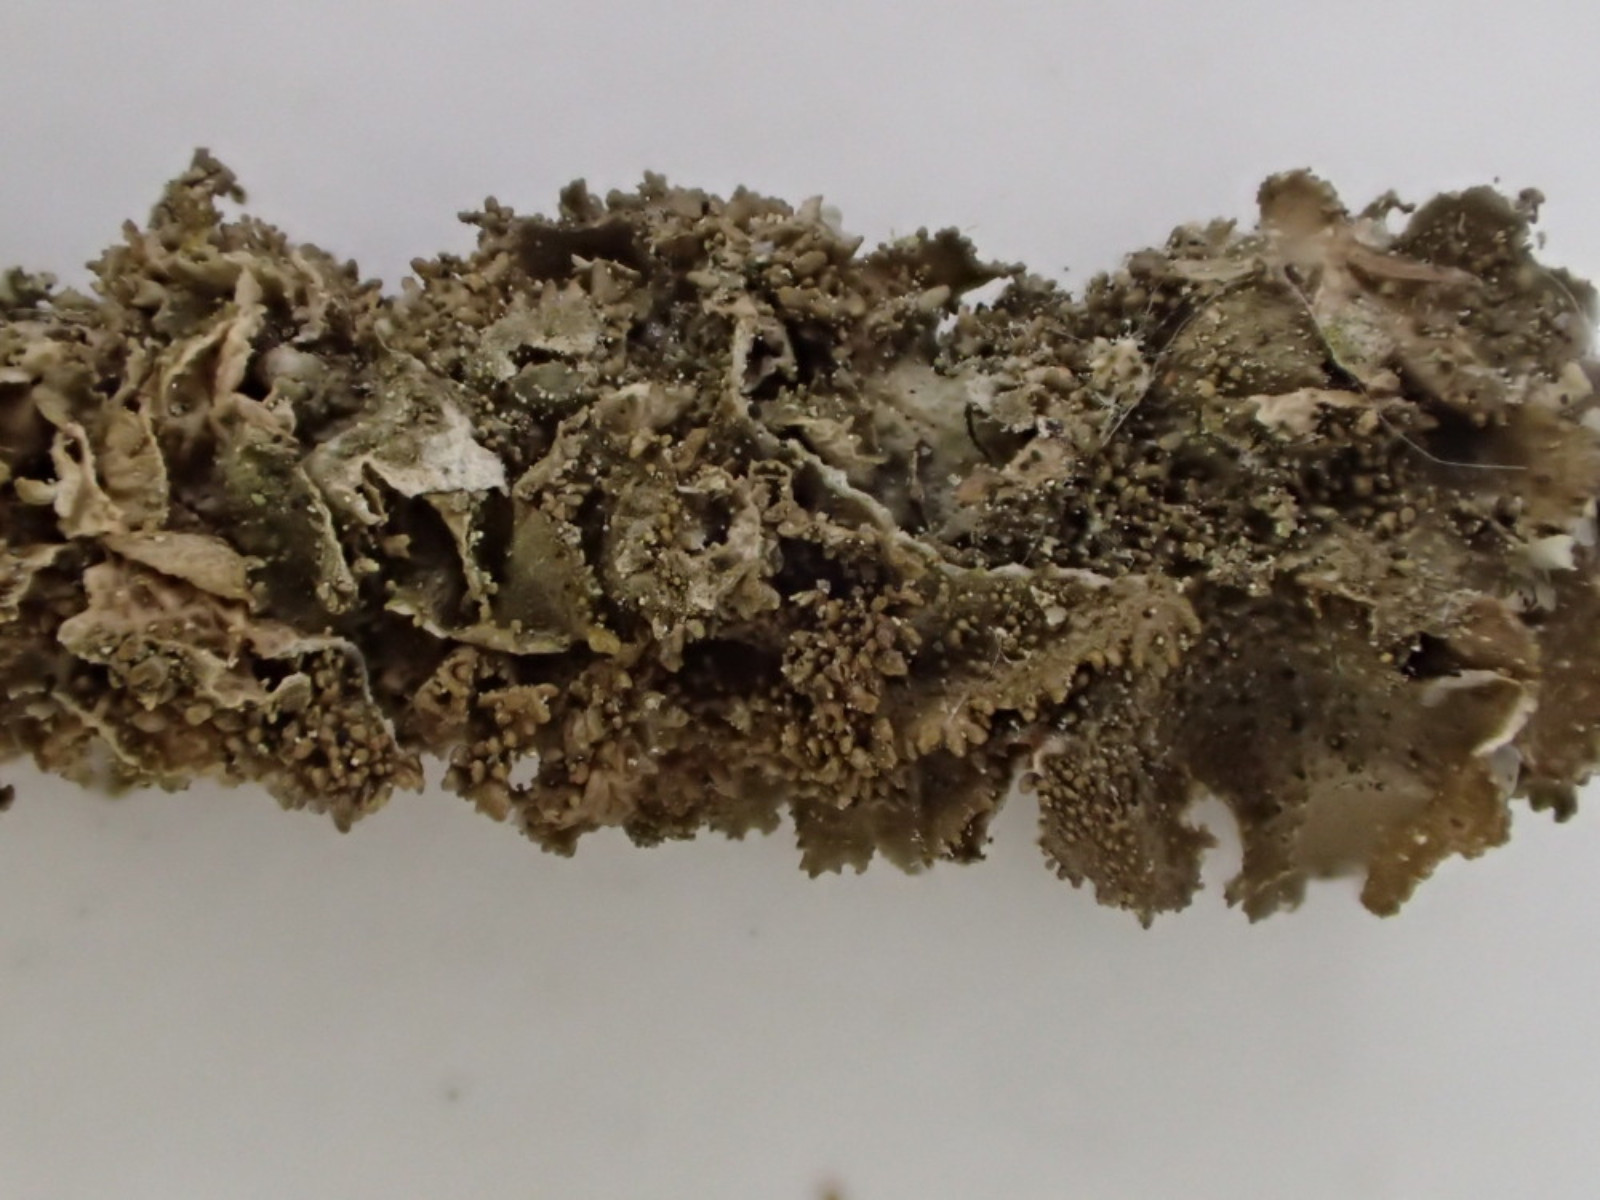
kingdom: Fungi
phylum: Ascomycota
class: Lecanoromycetes
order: Lecanorales
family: Parmeliaceae
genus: Melanohalea
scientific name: Melanohalea exasperatula
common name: kølle-skållav
